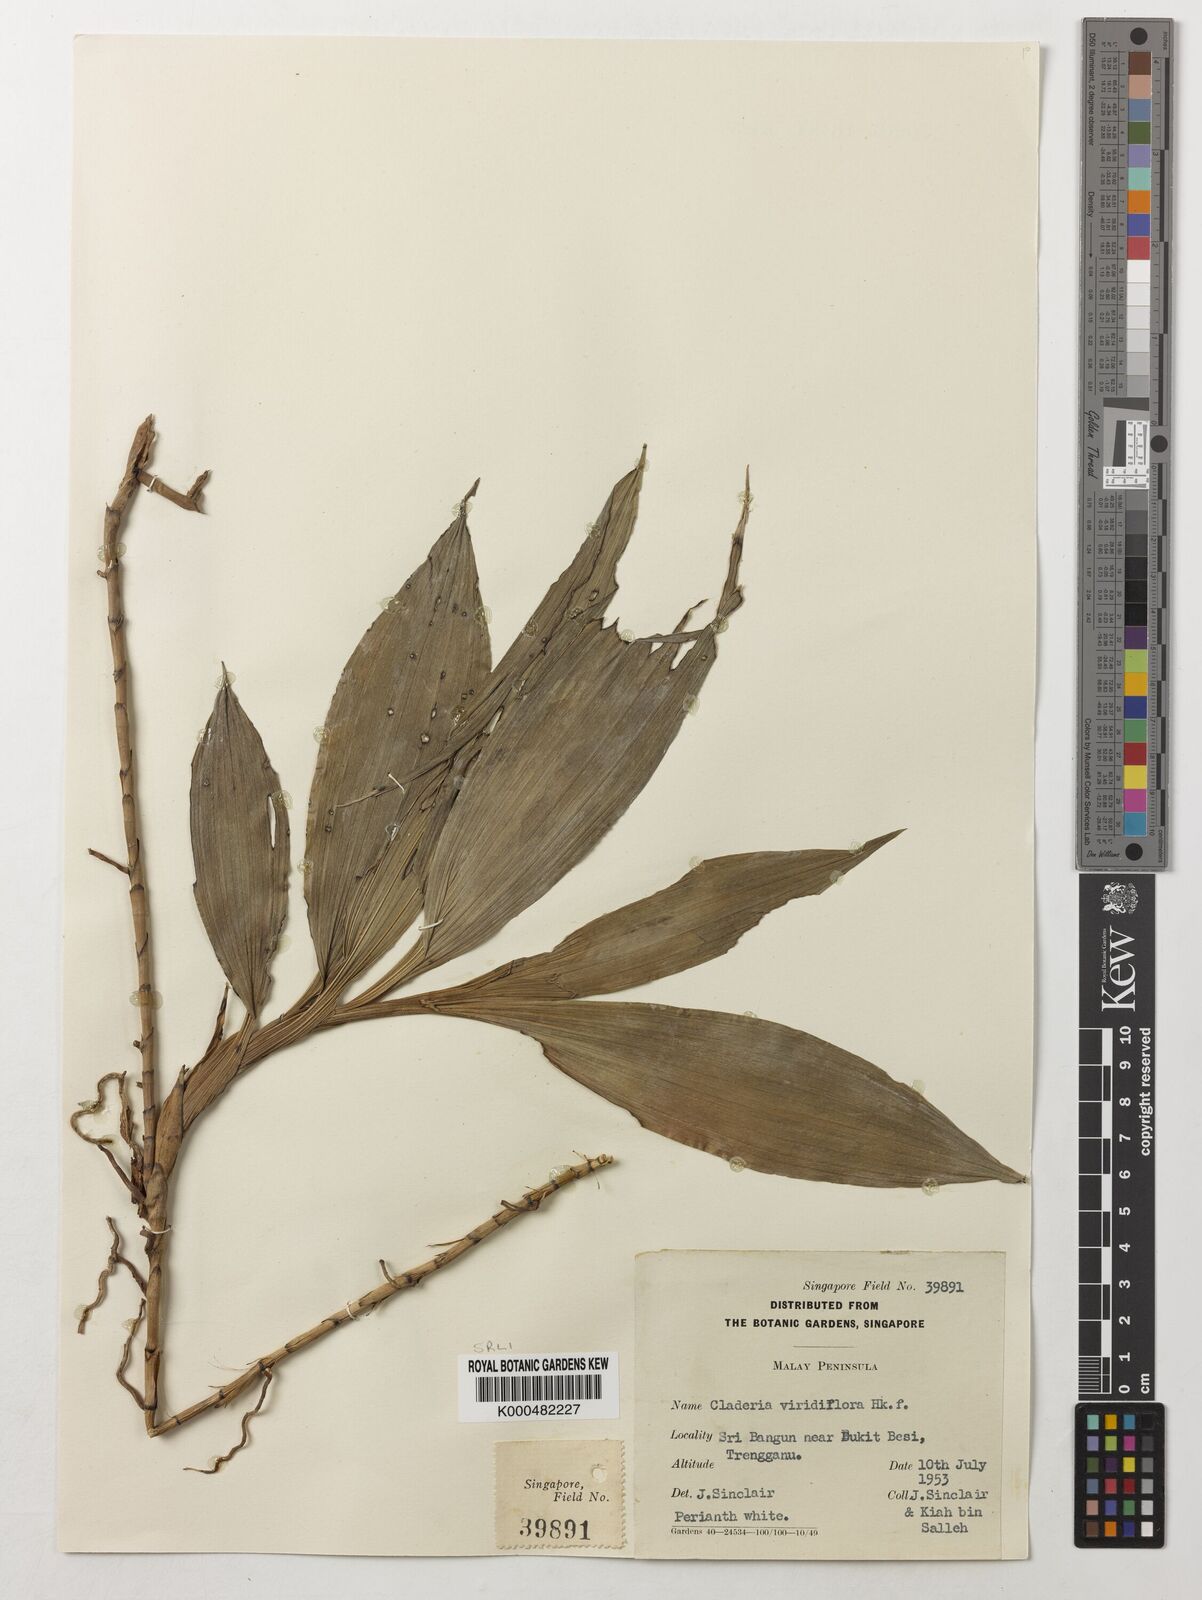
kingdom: Plantae
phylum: Tracheophyta
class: Liliopsida
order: Asparagales
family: Orchidaceae
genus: Claderia
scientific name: Claderia
